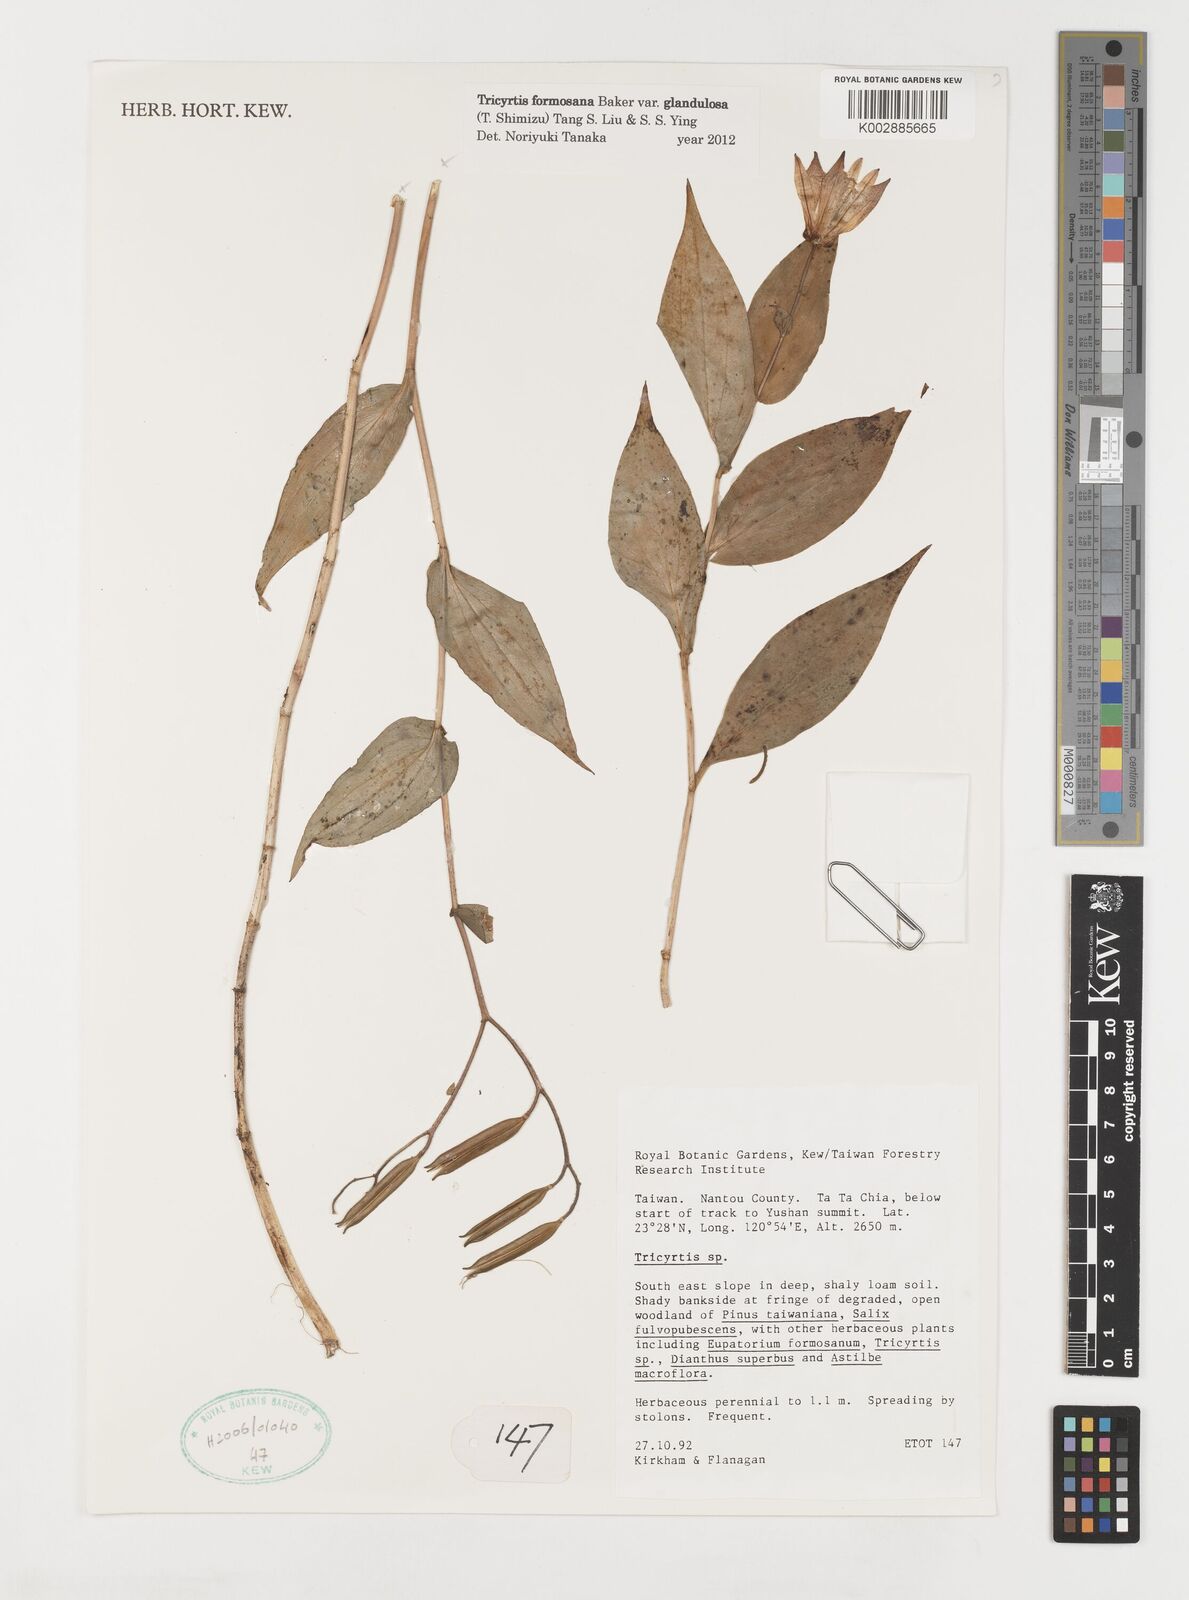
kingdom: Plantae
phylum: Tracheophyta
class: Liliopsida
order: Liliales
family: Liliaceae
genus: Tricyrtis
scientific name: Tricyrtis formosana
